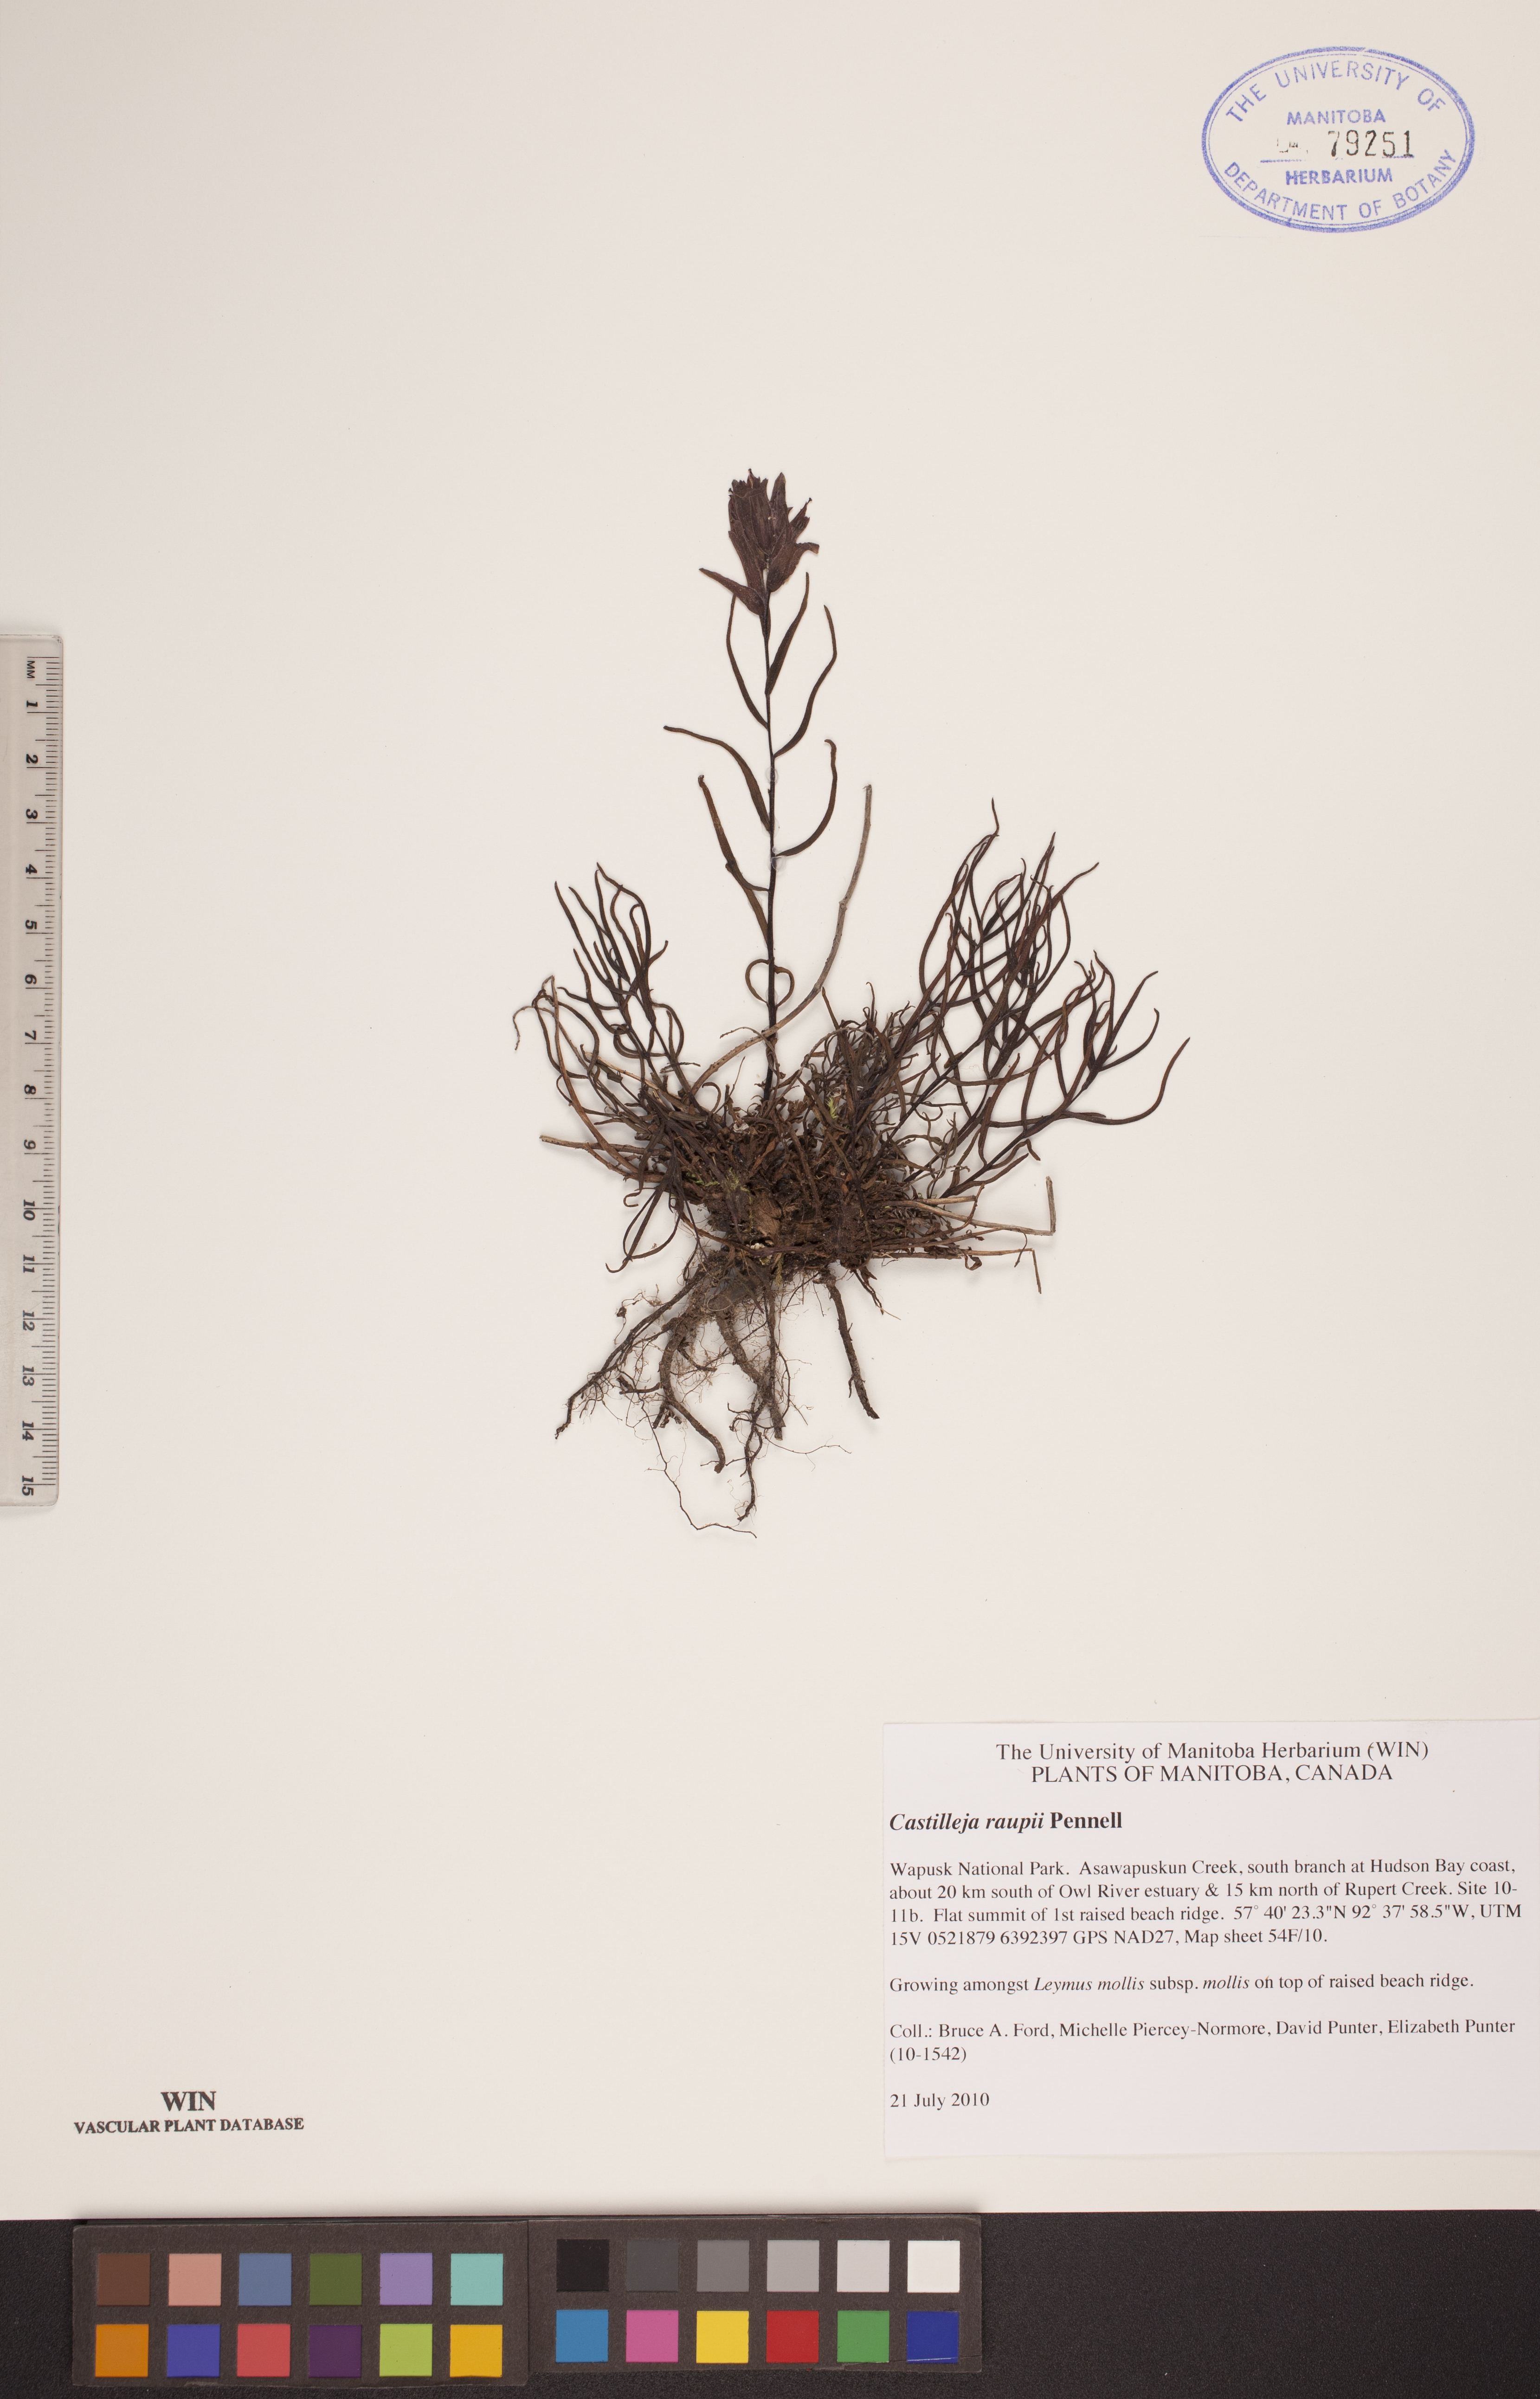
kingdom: Plantae
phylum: Tracheophyta
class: Magnoliopsida
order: Lamiales
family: Orobanchaceae
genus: Castilleja
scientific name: Castilleja raupii
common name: Raup's paintbrush
